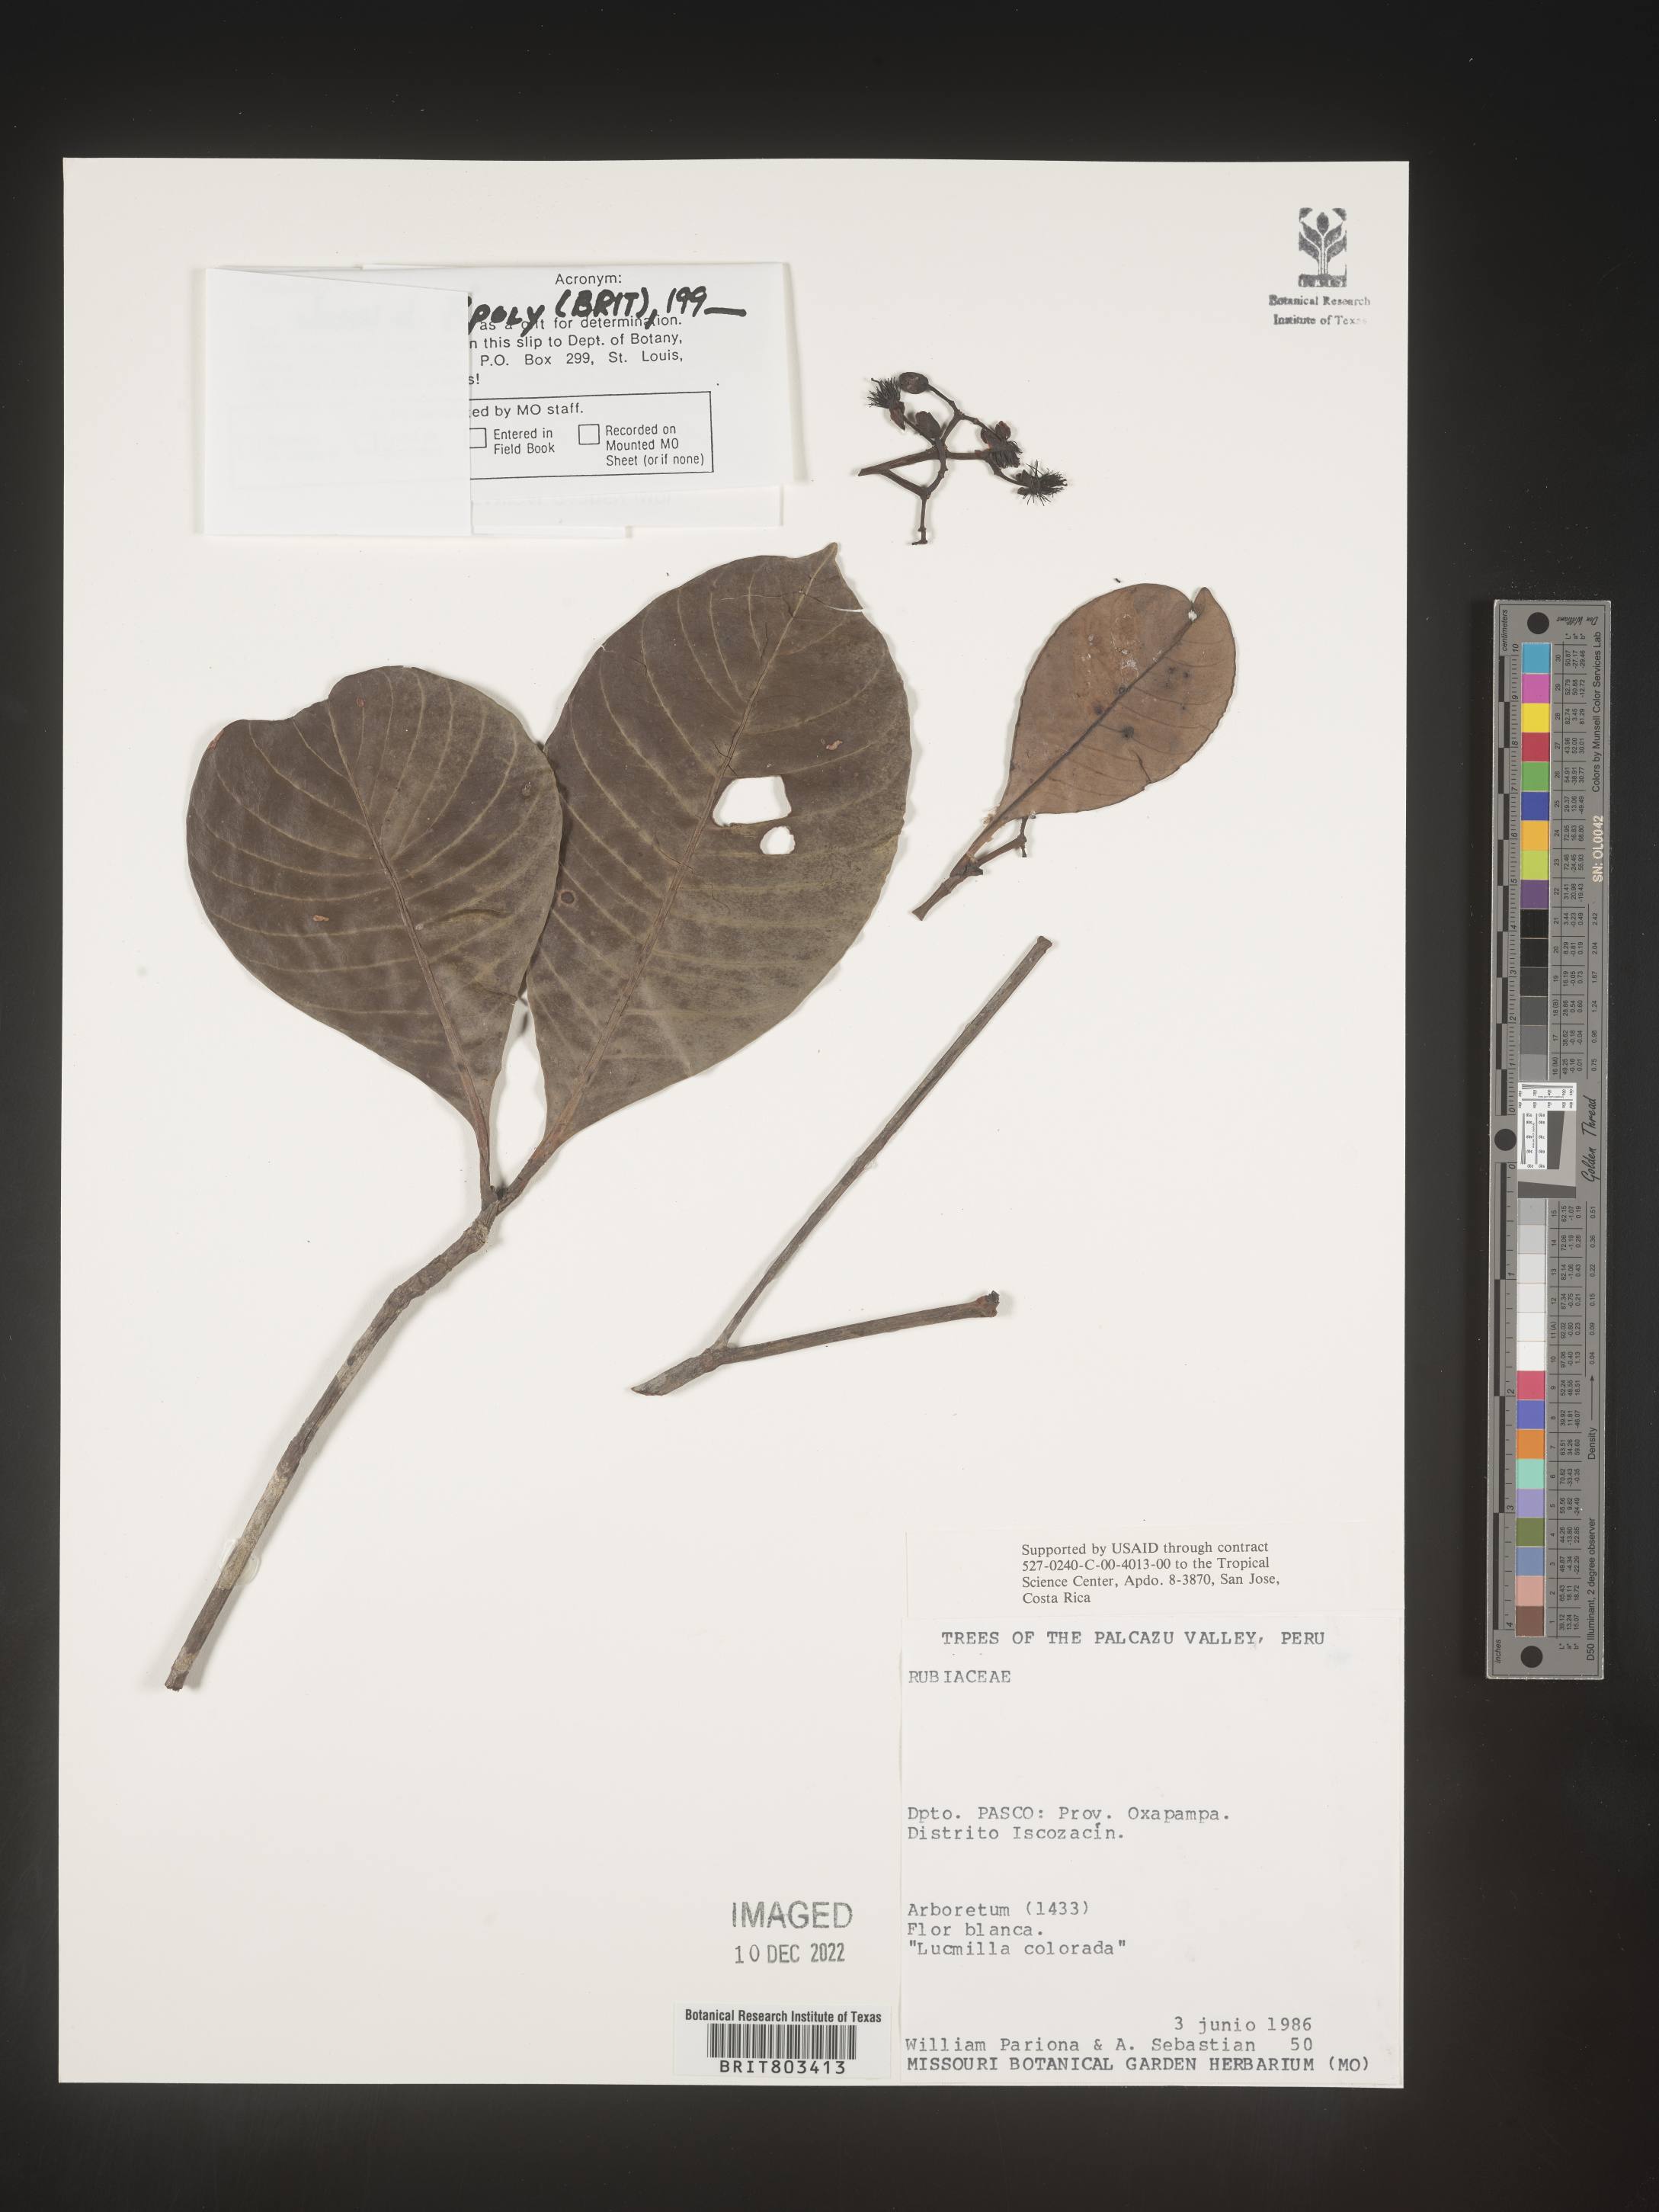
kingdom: Plantae
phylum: Tracheophyta
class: Magnoliopsida
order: Malpighiales
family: Clusiaceae
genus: Tovomita
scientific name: Tovomita
